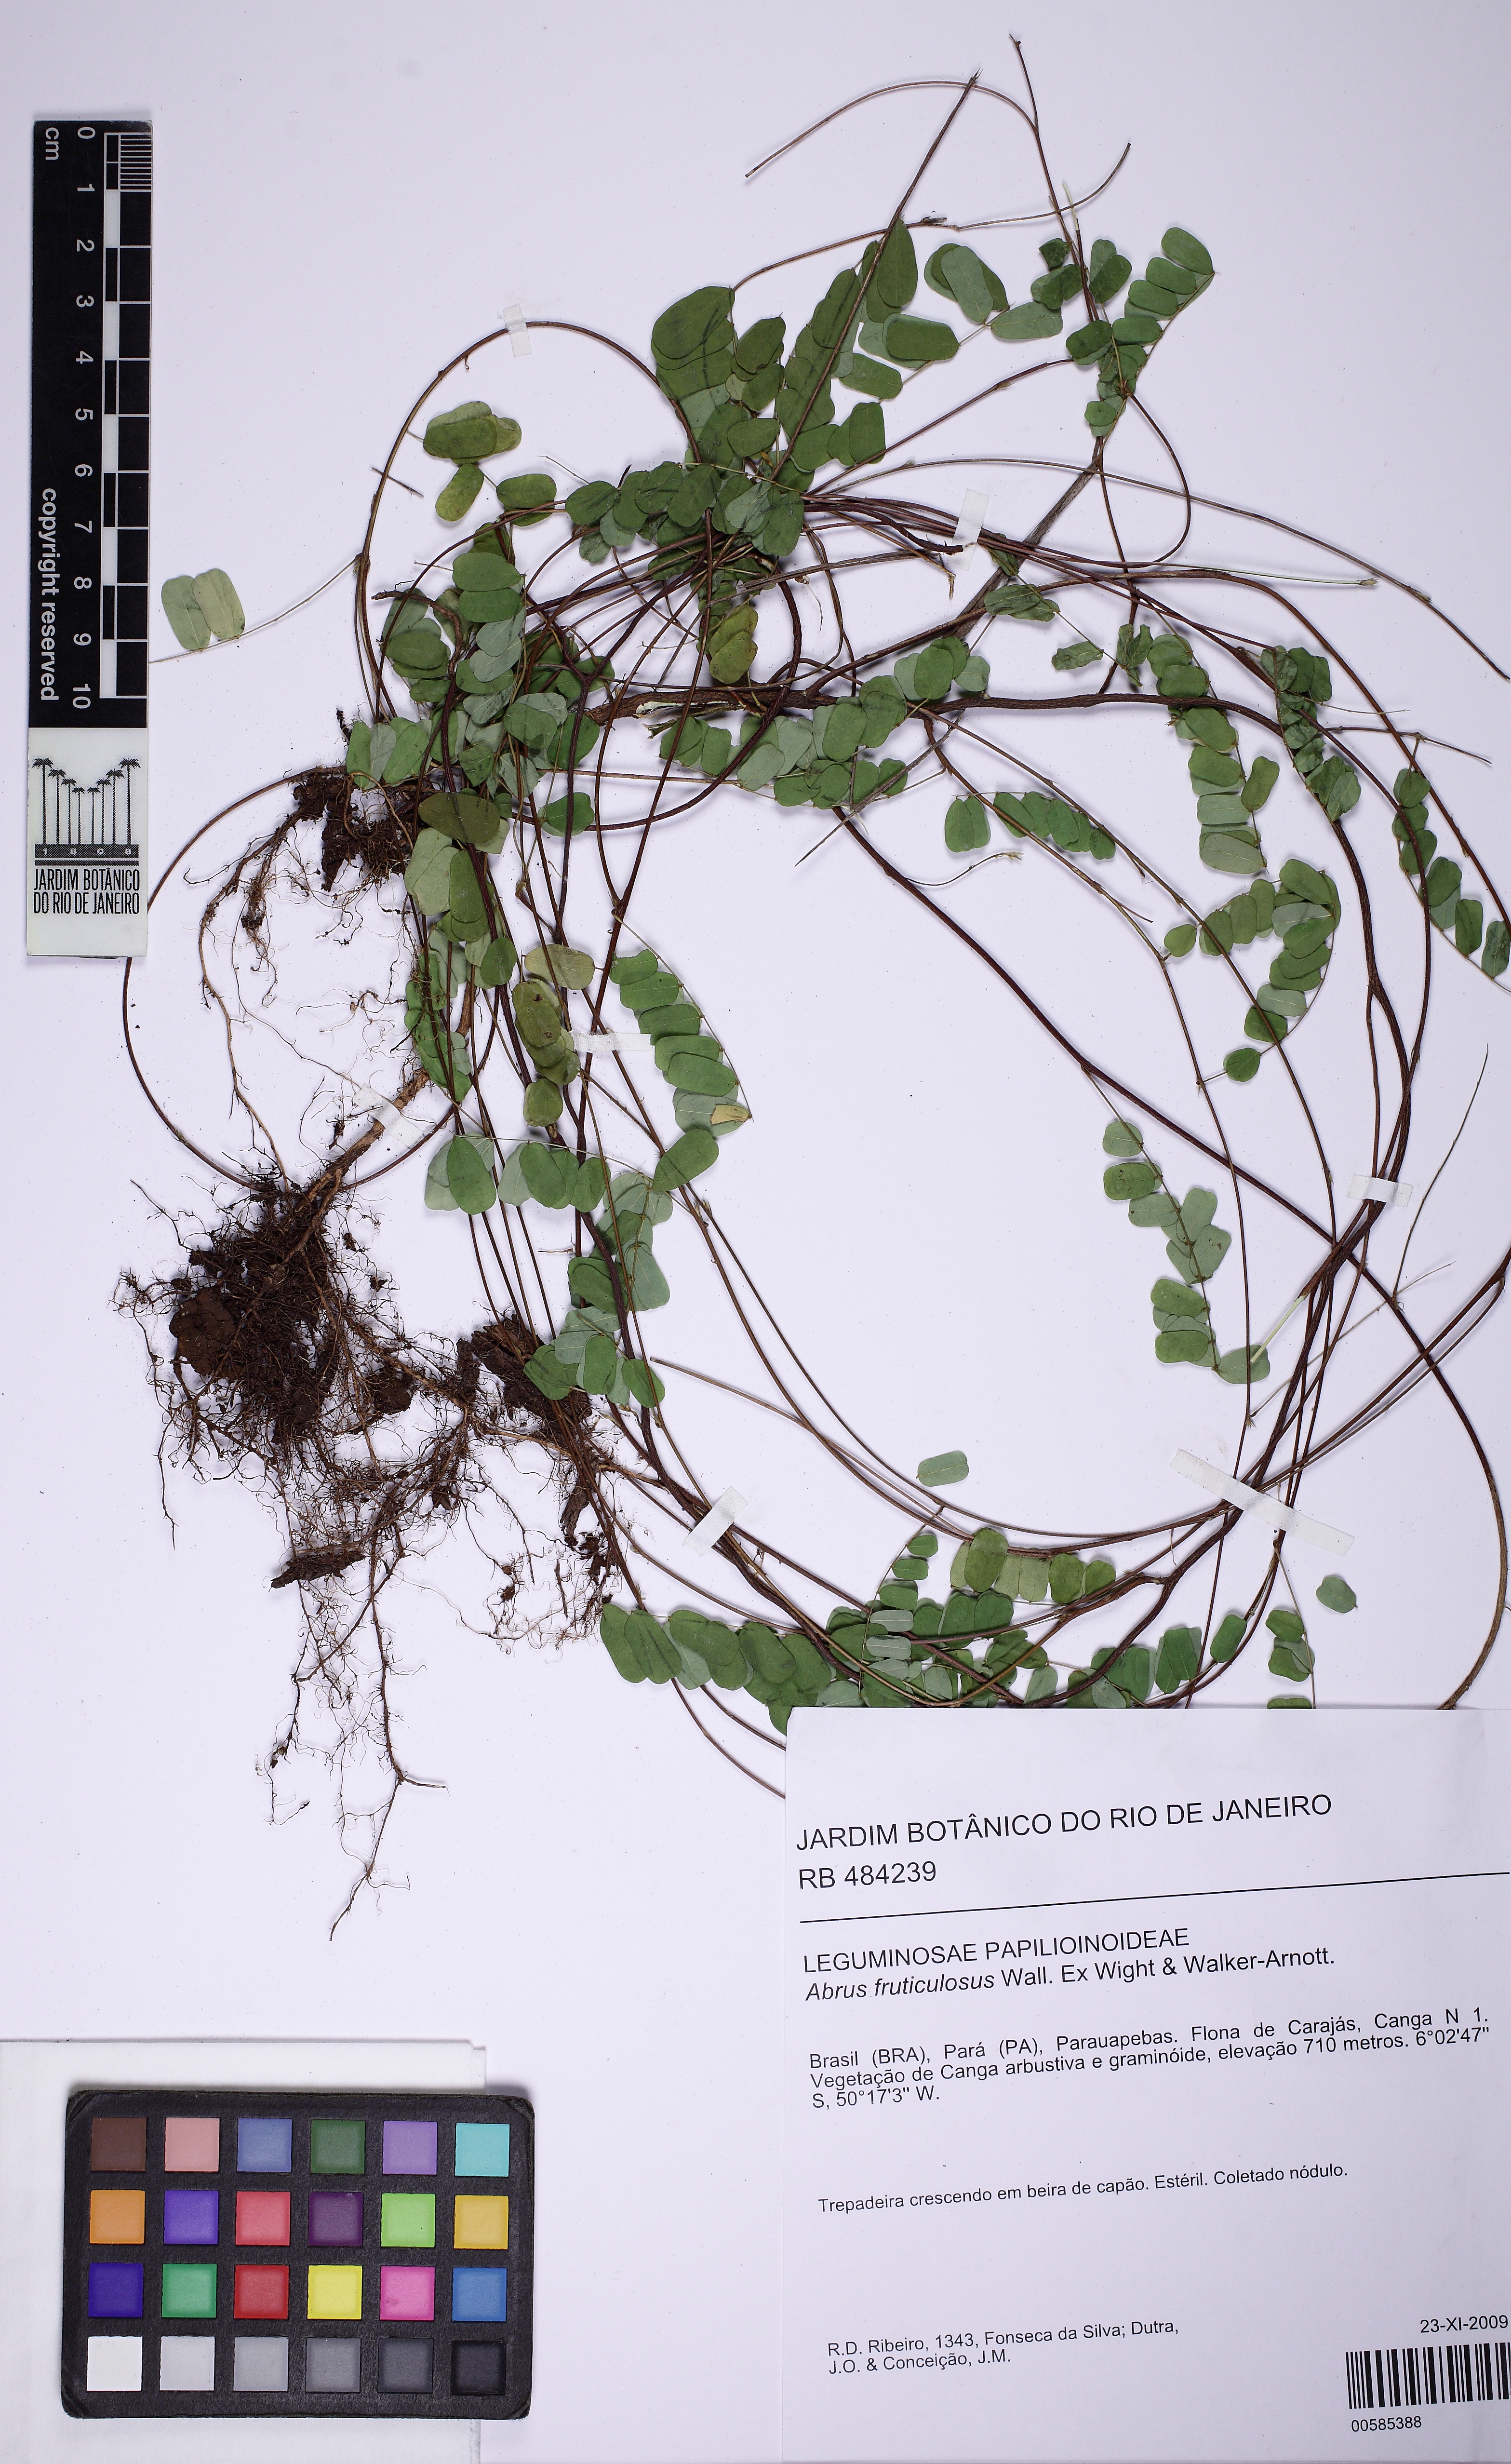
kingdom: Plantae
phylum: Tracheophyta
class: Magnoliopsida
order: Fabales
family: Fabaceae
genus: Abrus
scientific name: Abrus melanospermus
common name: Licorice-root
